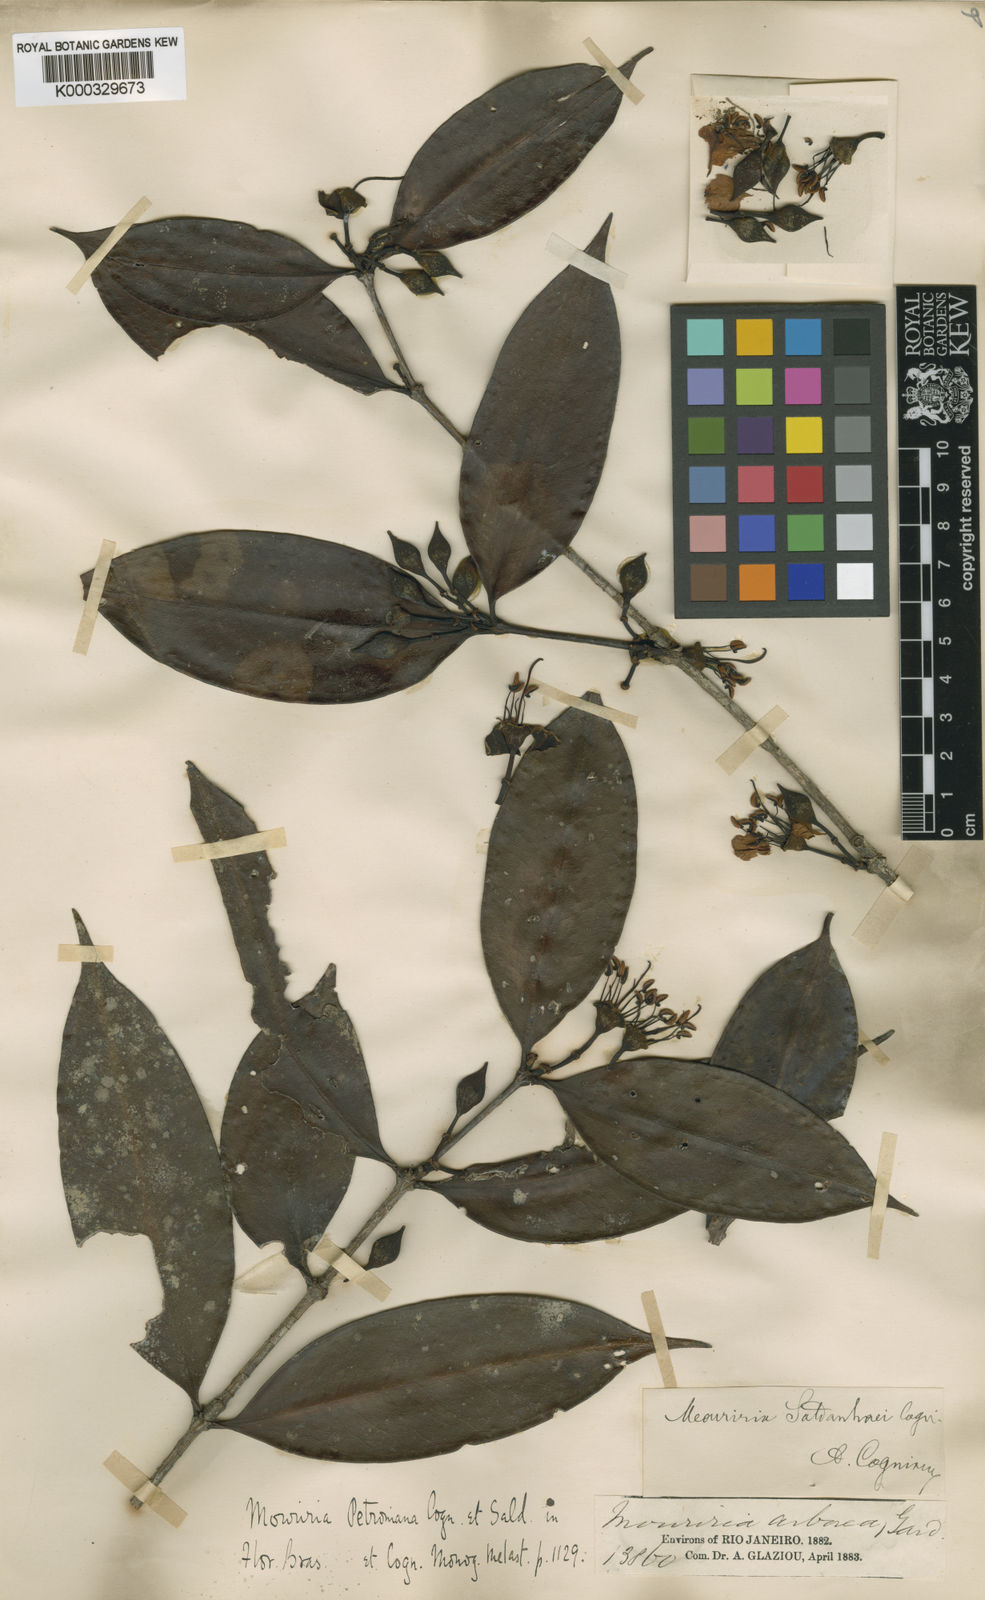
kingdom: Plantae
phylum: Tracheophyta
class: Magnoliopsida
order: Myrtales
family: Melastomataceae
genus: Mouriri
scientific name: Mouriri arborea
